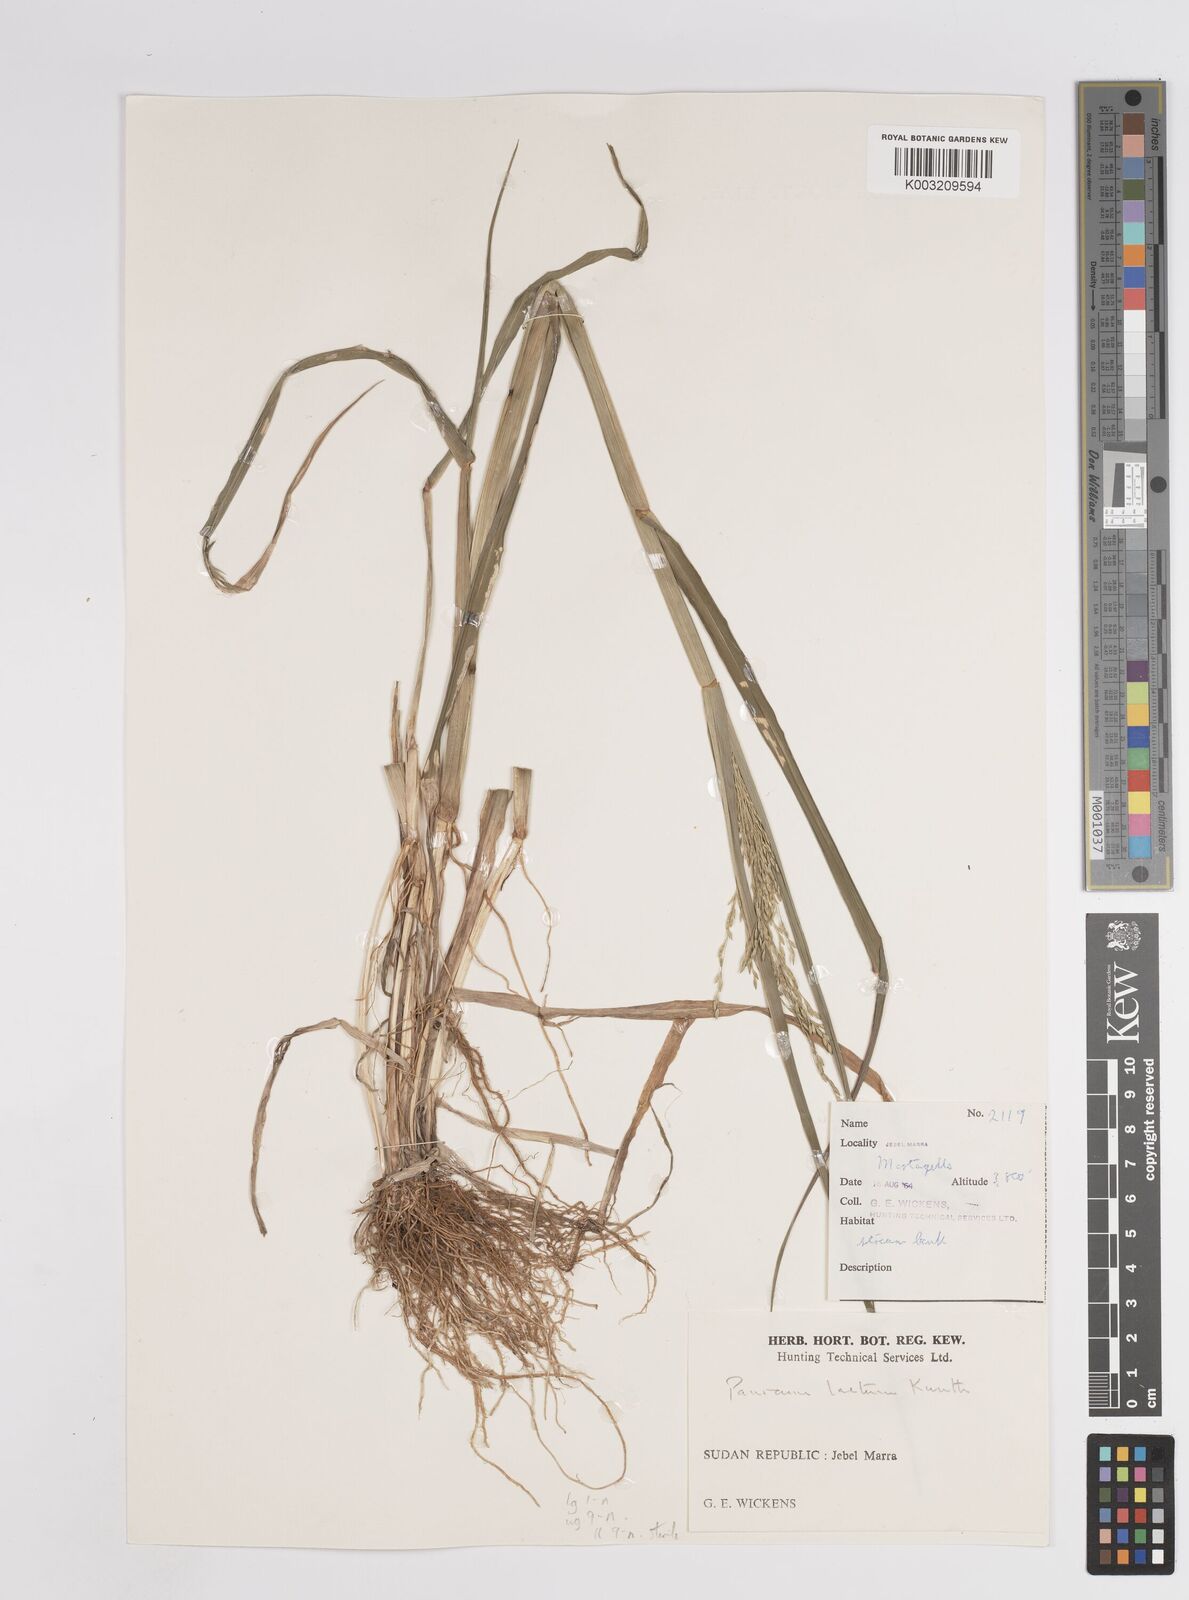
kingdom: Plantae
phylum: Tracheophyta
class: Liliopsida
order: Poales
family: Poaceae
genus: Panicum
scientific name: Panicum subalbidum
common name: Elbow buffalo grass
